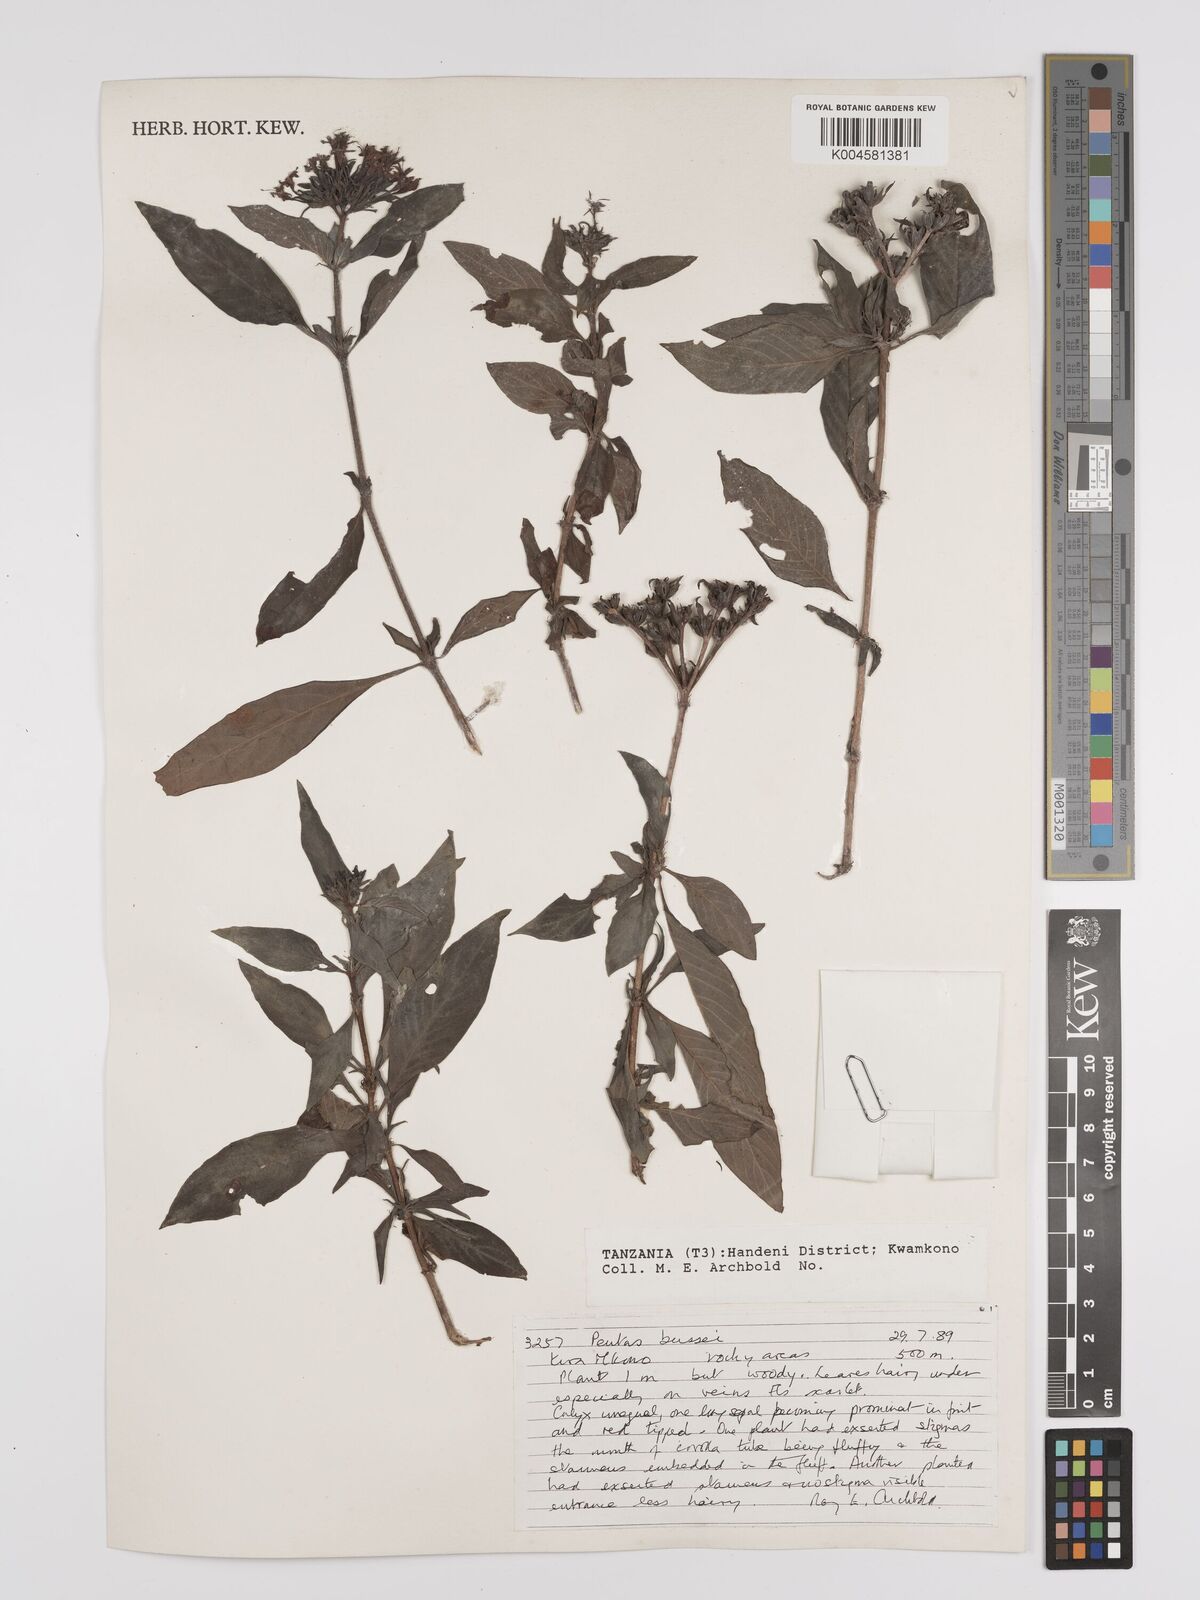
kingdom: Plantae
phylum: Tracheophyta
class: Magnoliopsida
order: Gentianales
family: Rubiaceae
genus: Rhodopentas
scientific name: Rhodopentas bussei
